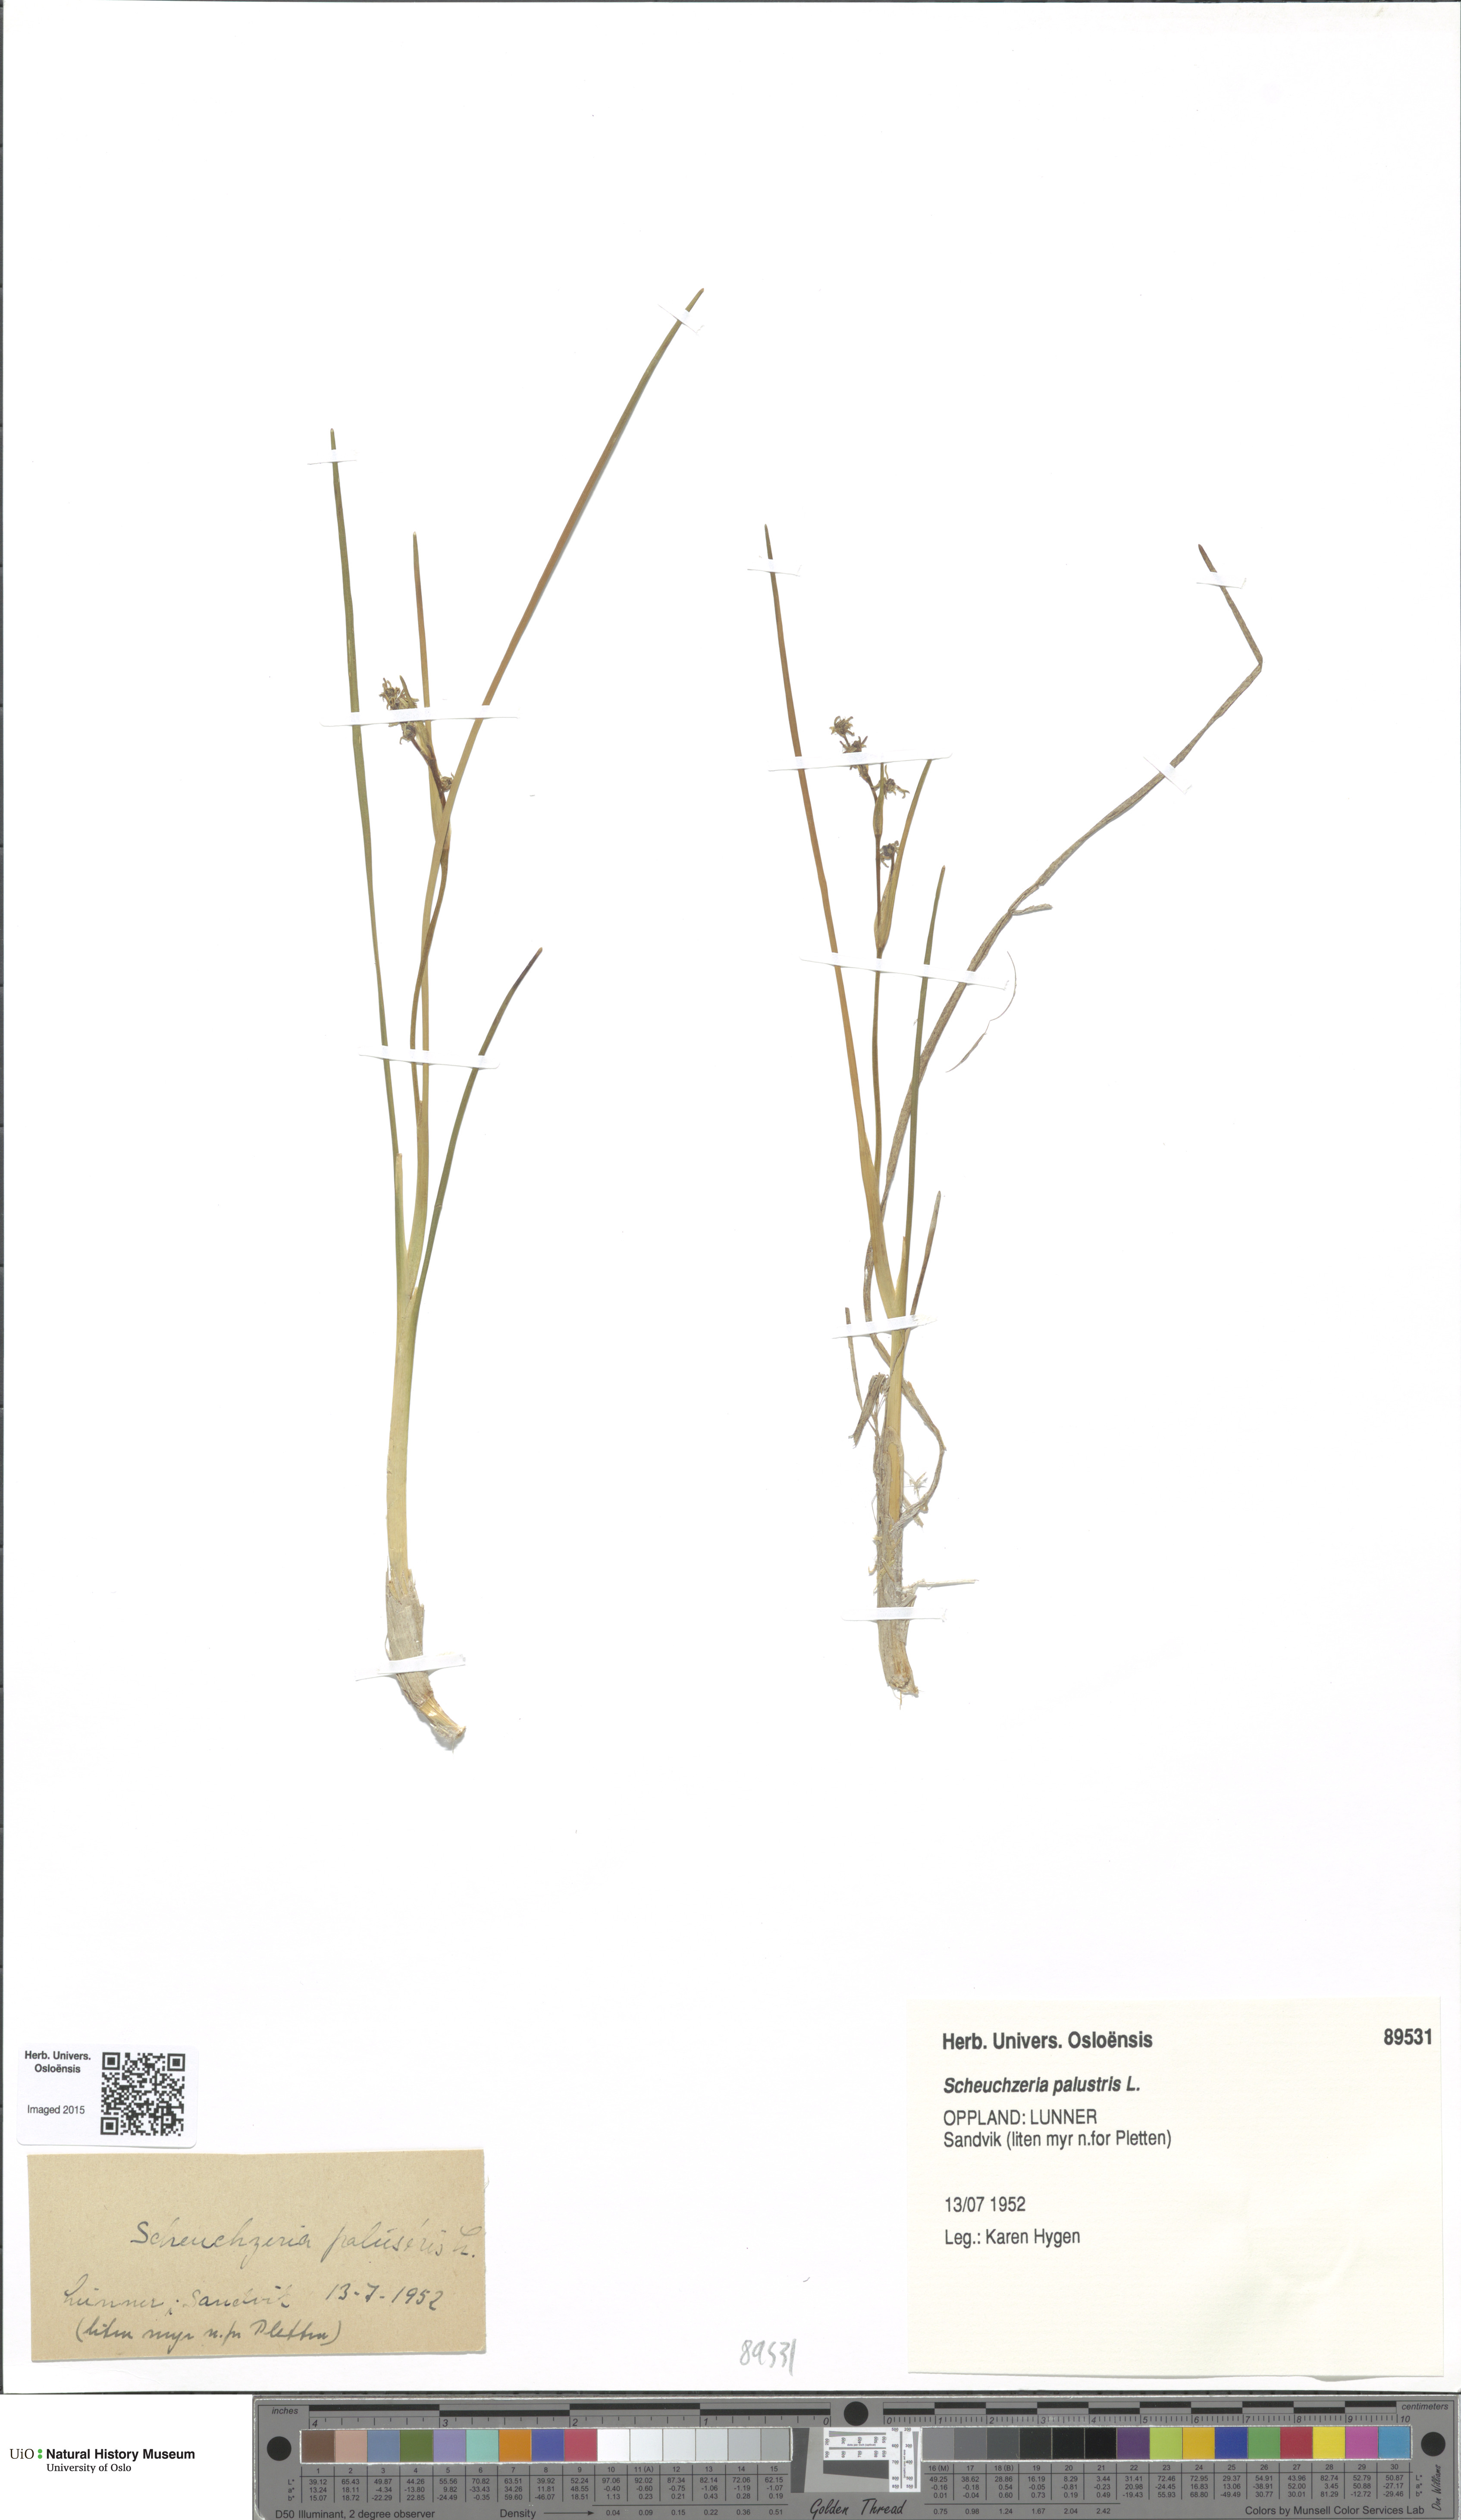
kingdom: Plantae
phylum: Tracheophyta
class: Liliopsida
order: Alismatales
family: Scheuchzeriaceae
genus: Scheuchzeria
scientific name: Scheuchzeria palustris
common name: Rannoch-rush
